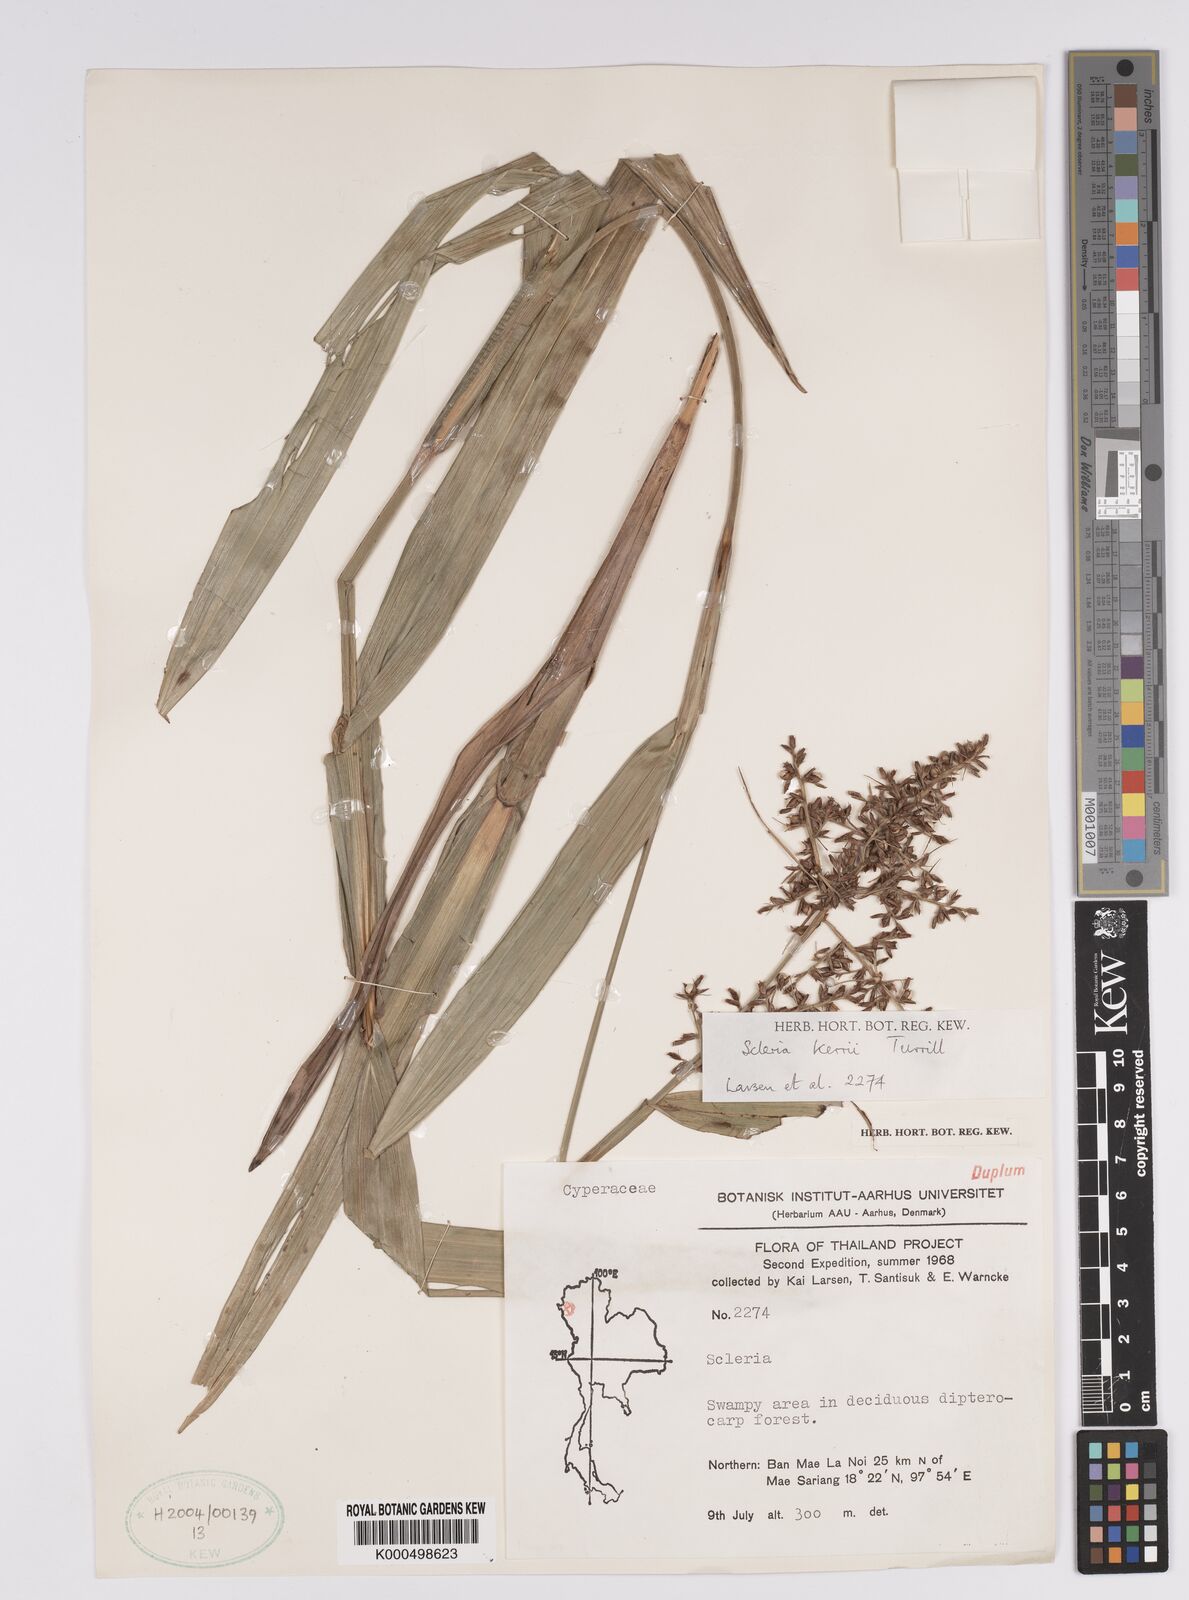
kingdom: Plantae
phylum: Tracheophyta
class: Liliopsida
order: Poales
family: Cyperaceae
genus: Scleria
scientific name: Scleria kerrii
